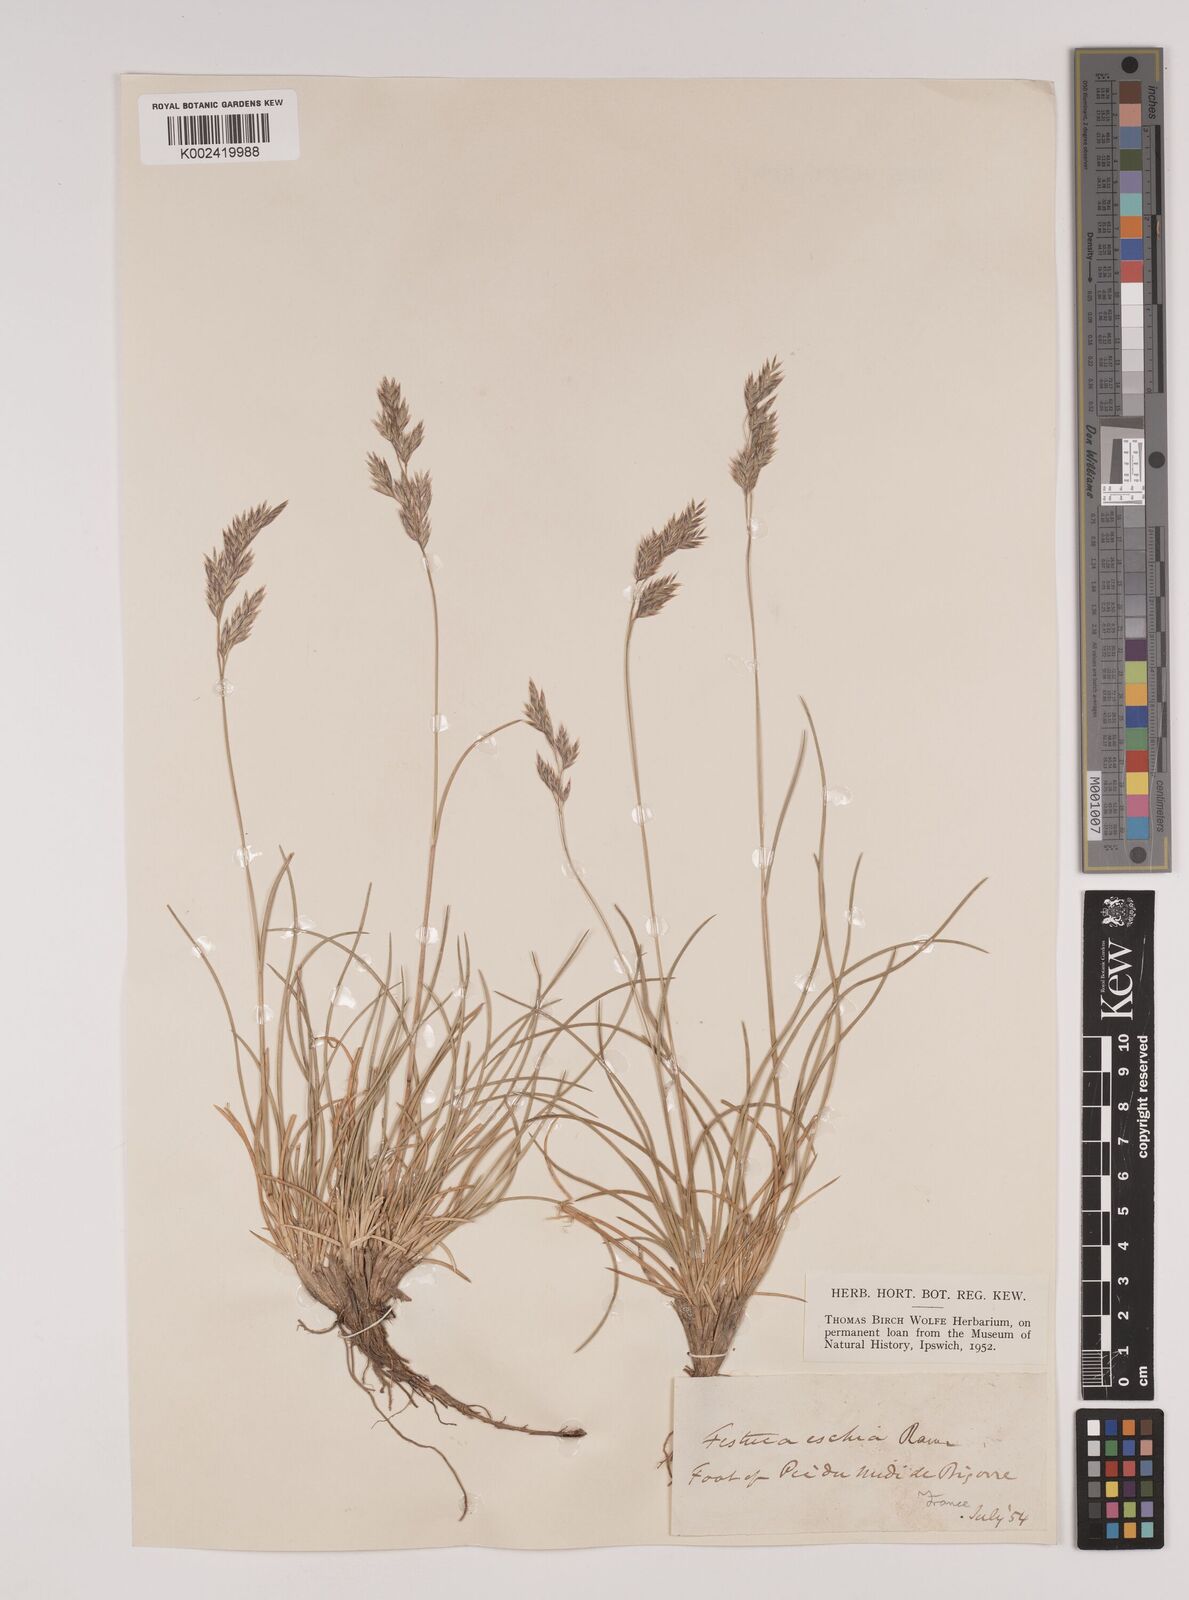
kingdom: Plantae
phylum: Tracheophyta
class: Liliopsida
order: Poales
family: Poaceae
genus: Festuca
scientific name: Festuca eskia
